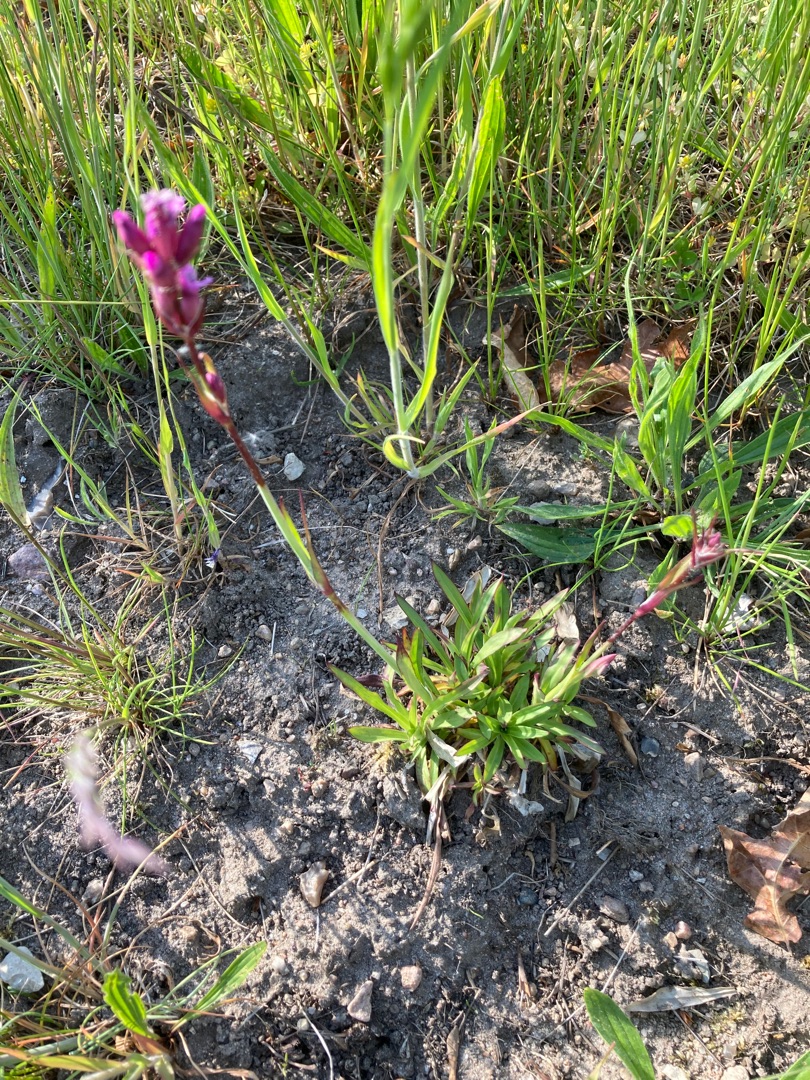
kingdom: Plantae
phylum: Tracheophyta
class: Magnoliopsida
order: Caryophyllales
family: Caryophyllaceae
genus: Viscaria
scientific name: Viscaria vulgaris
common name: Tjærenellike
